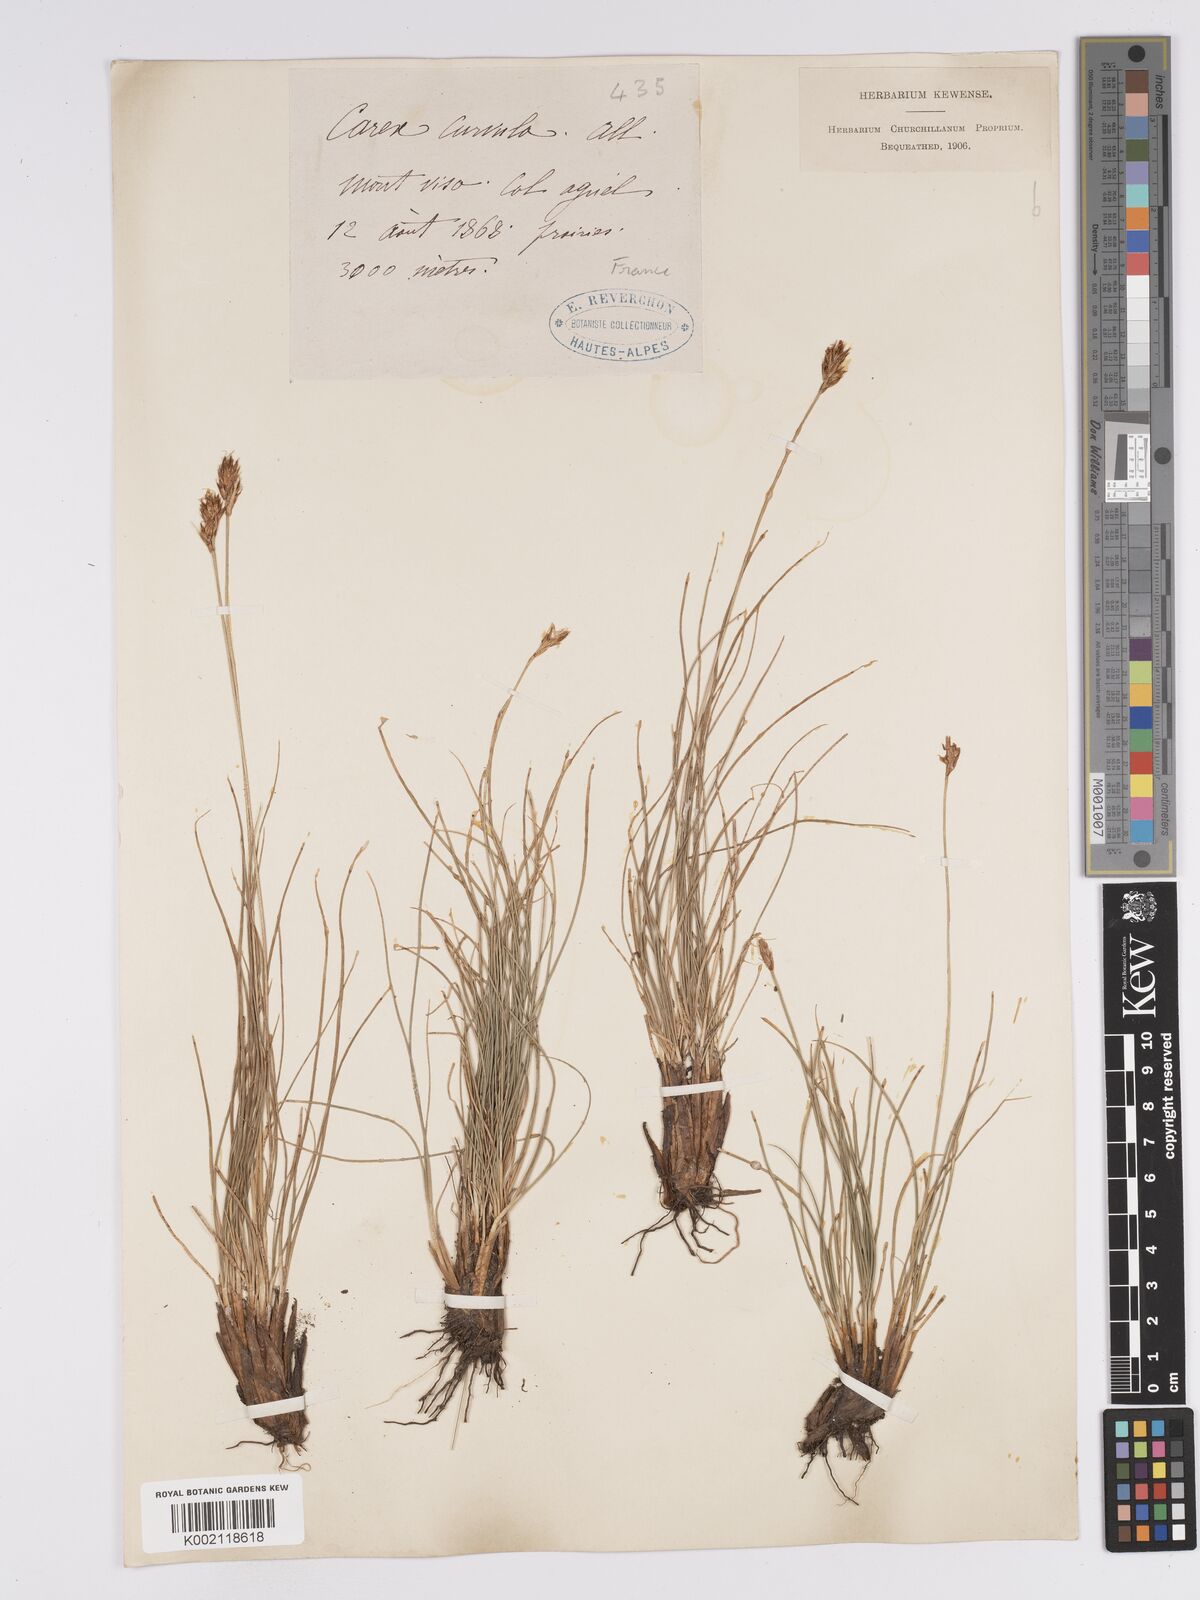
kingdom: Plantae
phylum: Tracheophyta
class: Liliopsida
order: Poales
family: Cyperaceae
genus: Carex
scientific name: Carex curvula
